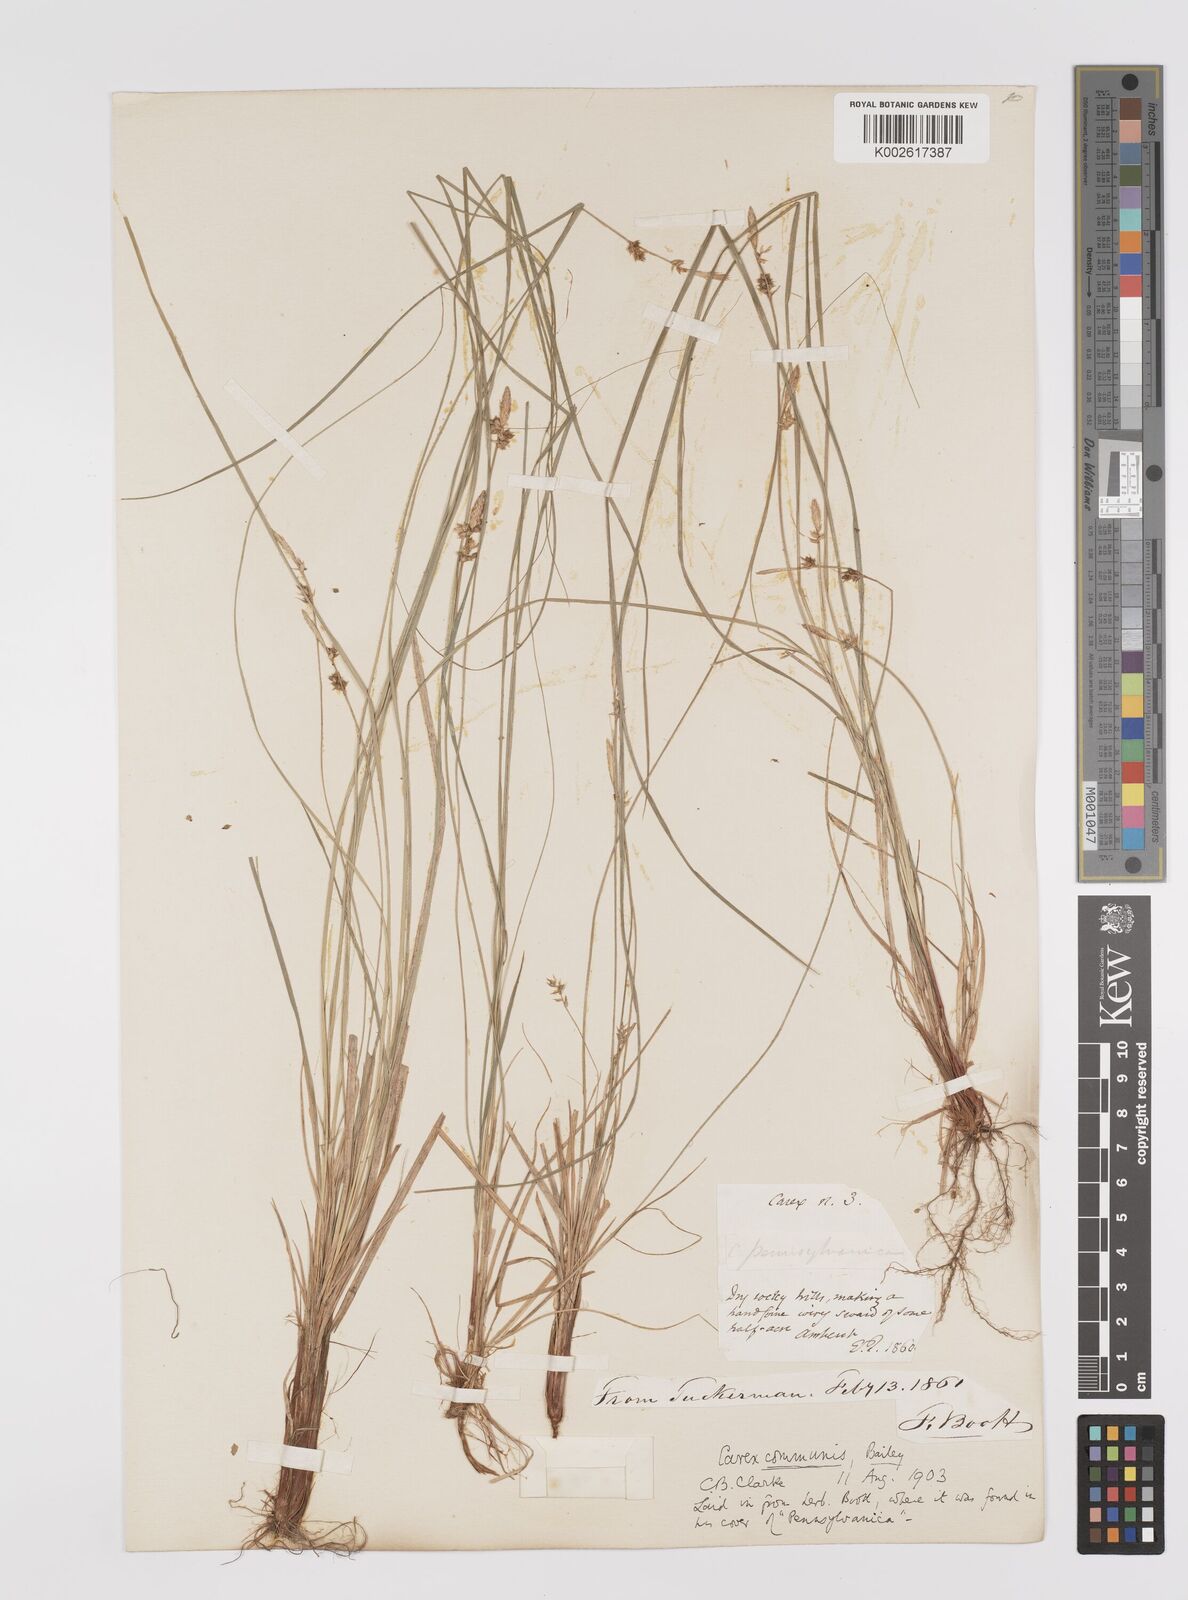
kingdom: Plantae
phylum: Tracheophyta
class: Liliopsida
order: Poales
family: Cyperaceae
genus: Carex
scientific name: Carex communis
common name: Colonial oak sedge
